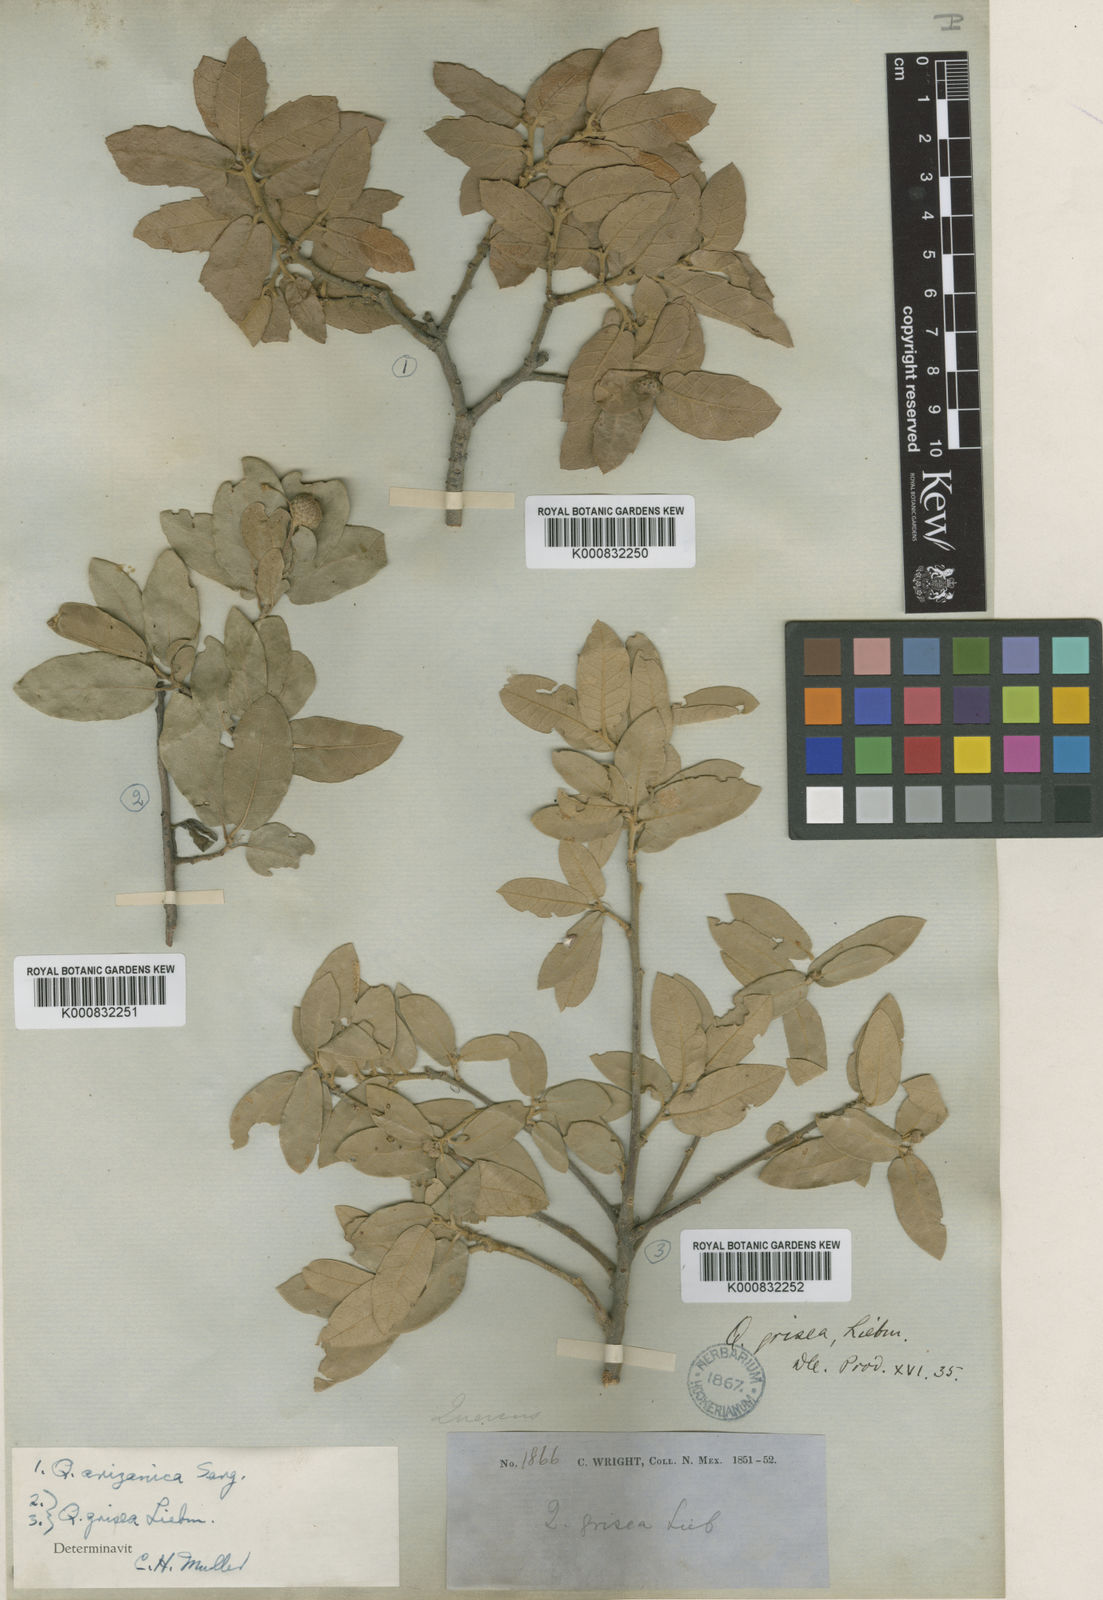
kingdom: Plantae
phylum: Tracheophyta
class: Magnoliopsida
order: Fagales
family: Fagaceae
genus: Quercus
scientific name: Quercus grisea
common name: Gray oak
